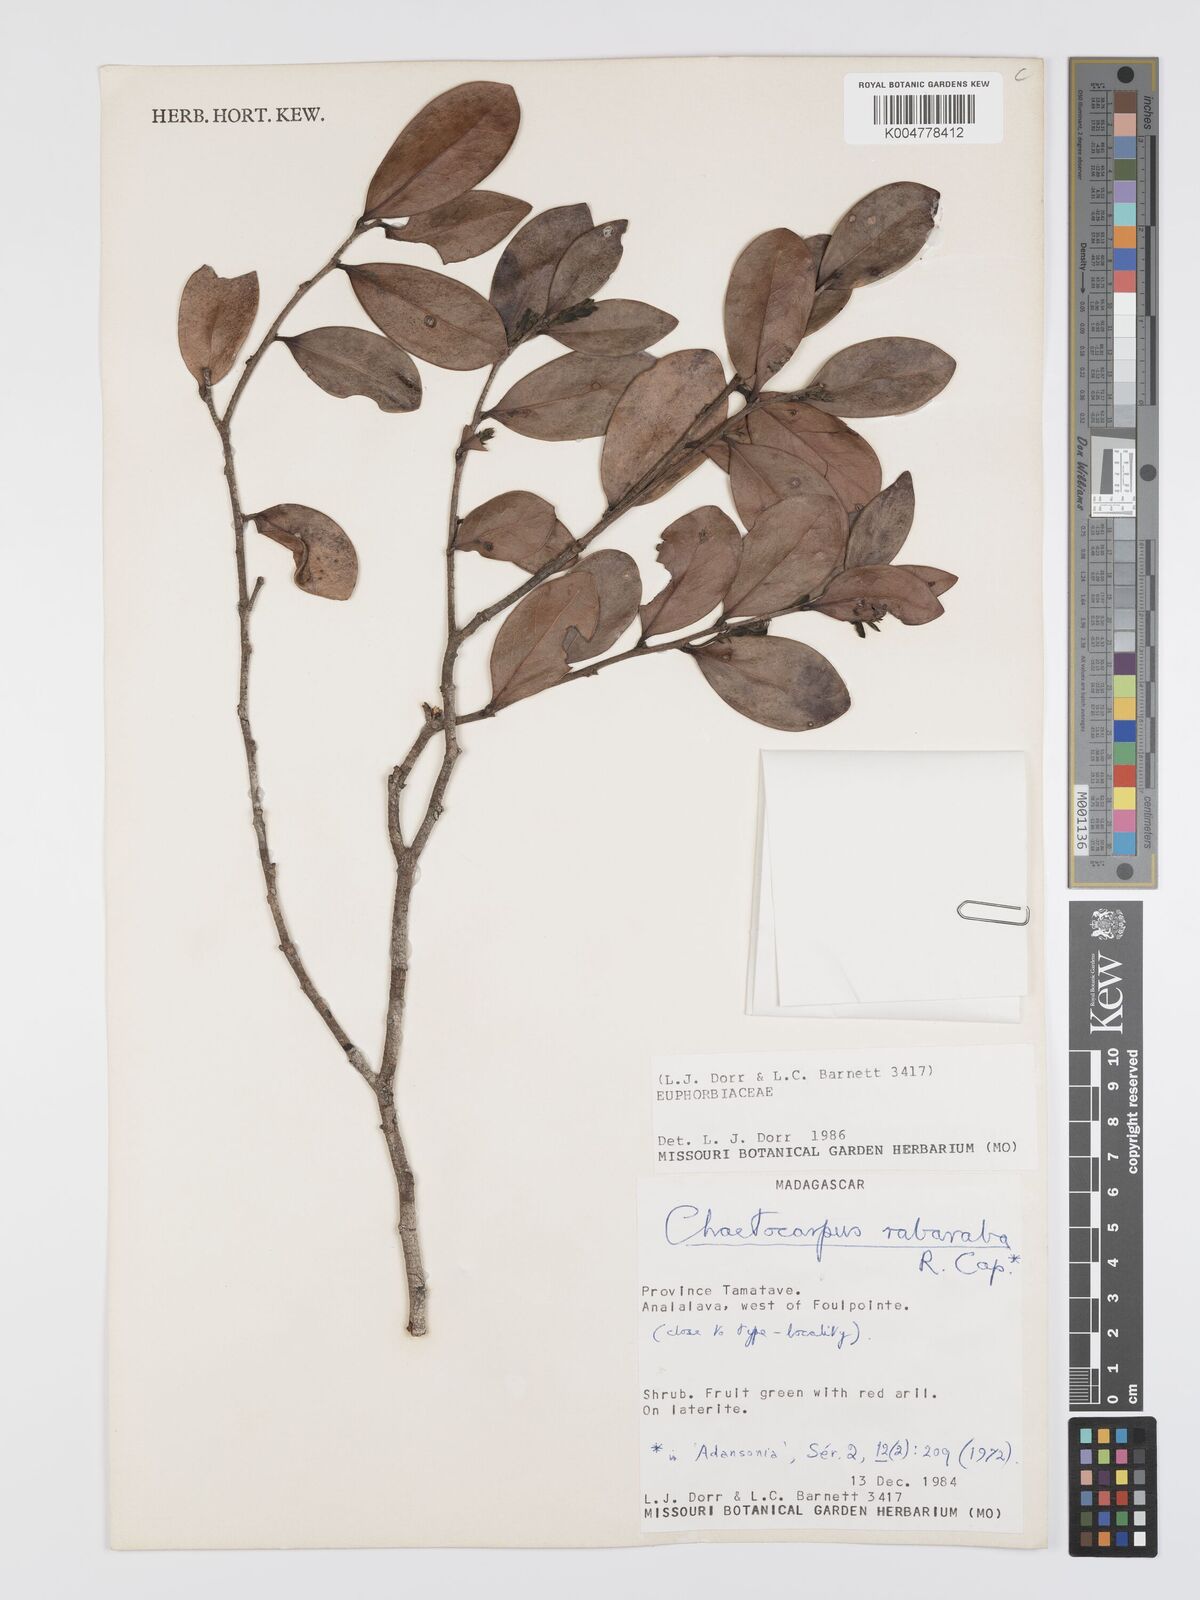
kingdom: Plantae
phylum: Tracheophyta
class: Magnoliopsida
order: Malpighiales
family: Peraceae
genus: Chaetocarpus
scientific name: Chaetocarpus rabaraba
